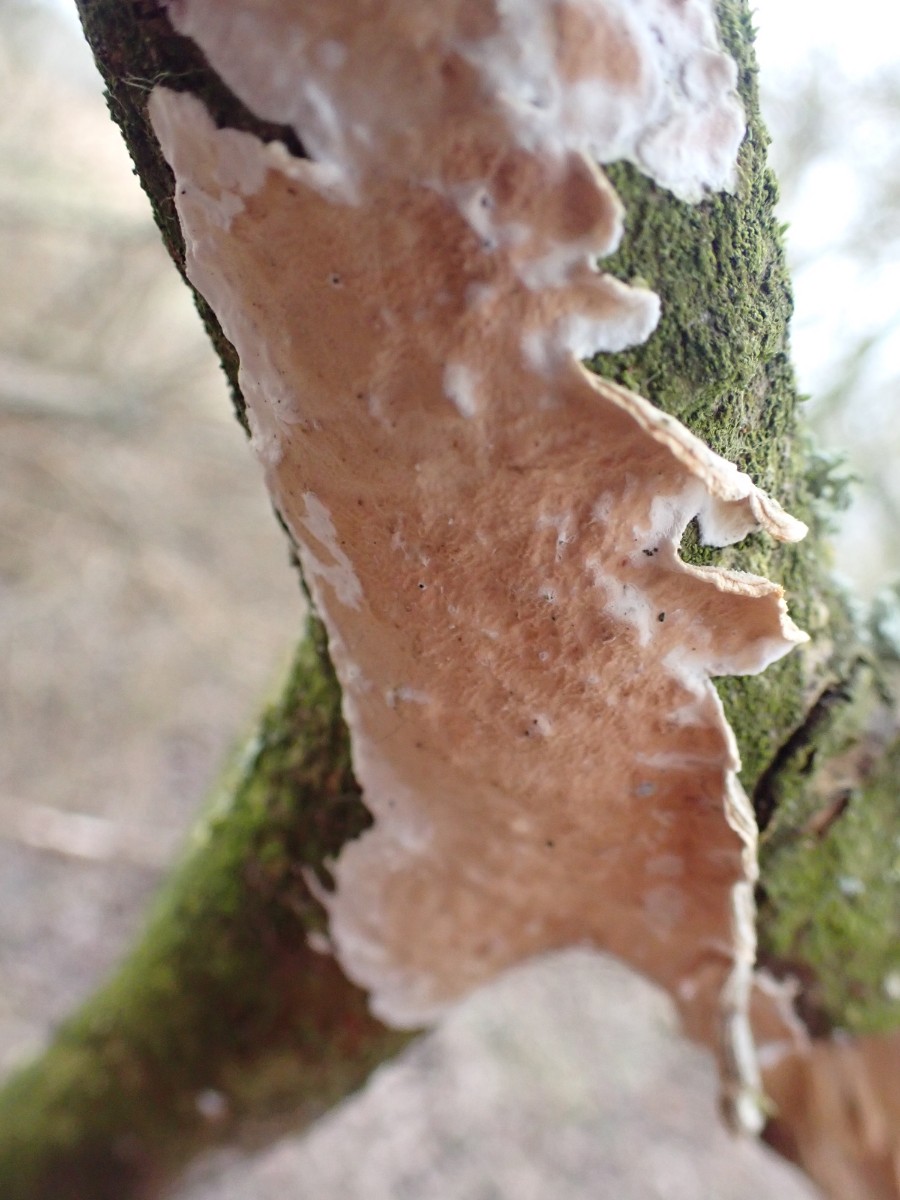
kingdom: Fungi
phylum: Basidiomycota
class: Agaricomycetes
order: Polyporales
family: Irpicaceae
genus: Byssomerulius
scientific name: Byssomerulius corium
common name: læder-åresvamp
